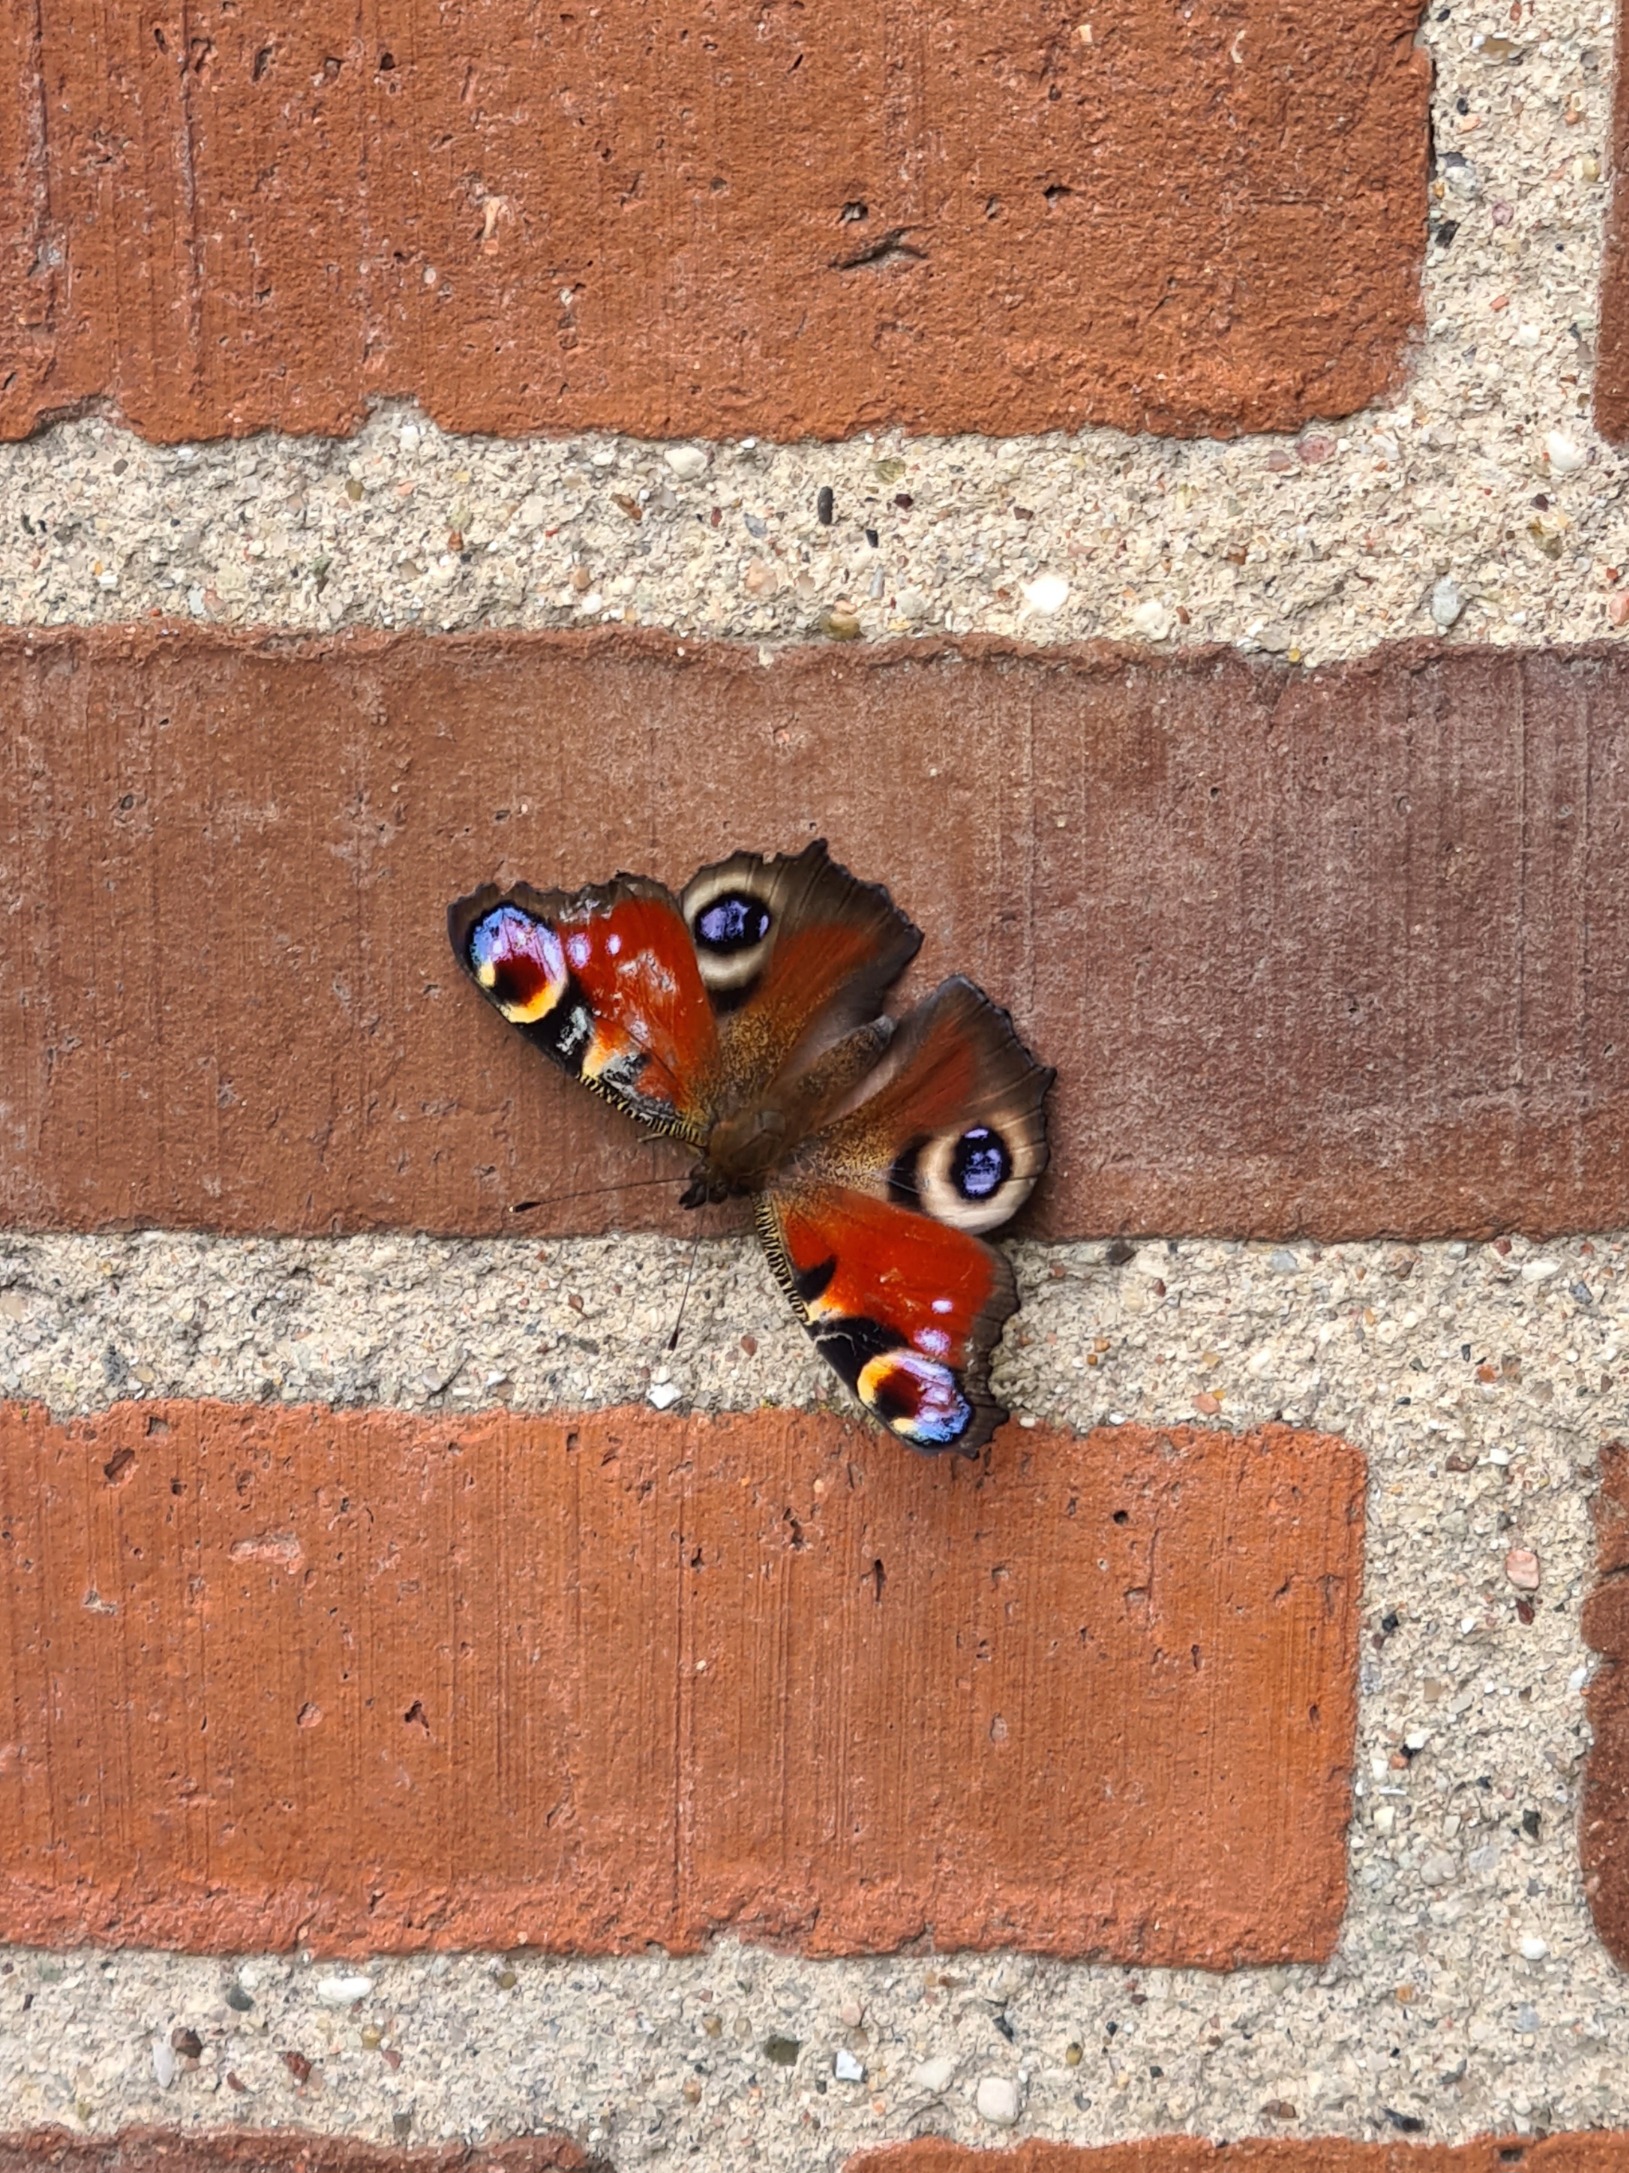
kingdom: Animalia
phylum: Arthropoda
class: Insecta
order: Lepidoptera
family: Nymphalidae
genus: Aglais
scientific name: Aglais io
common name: Dagpåfugleøje
